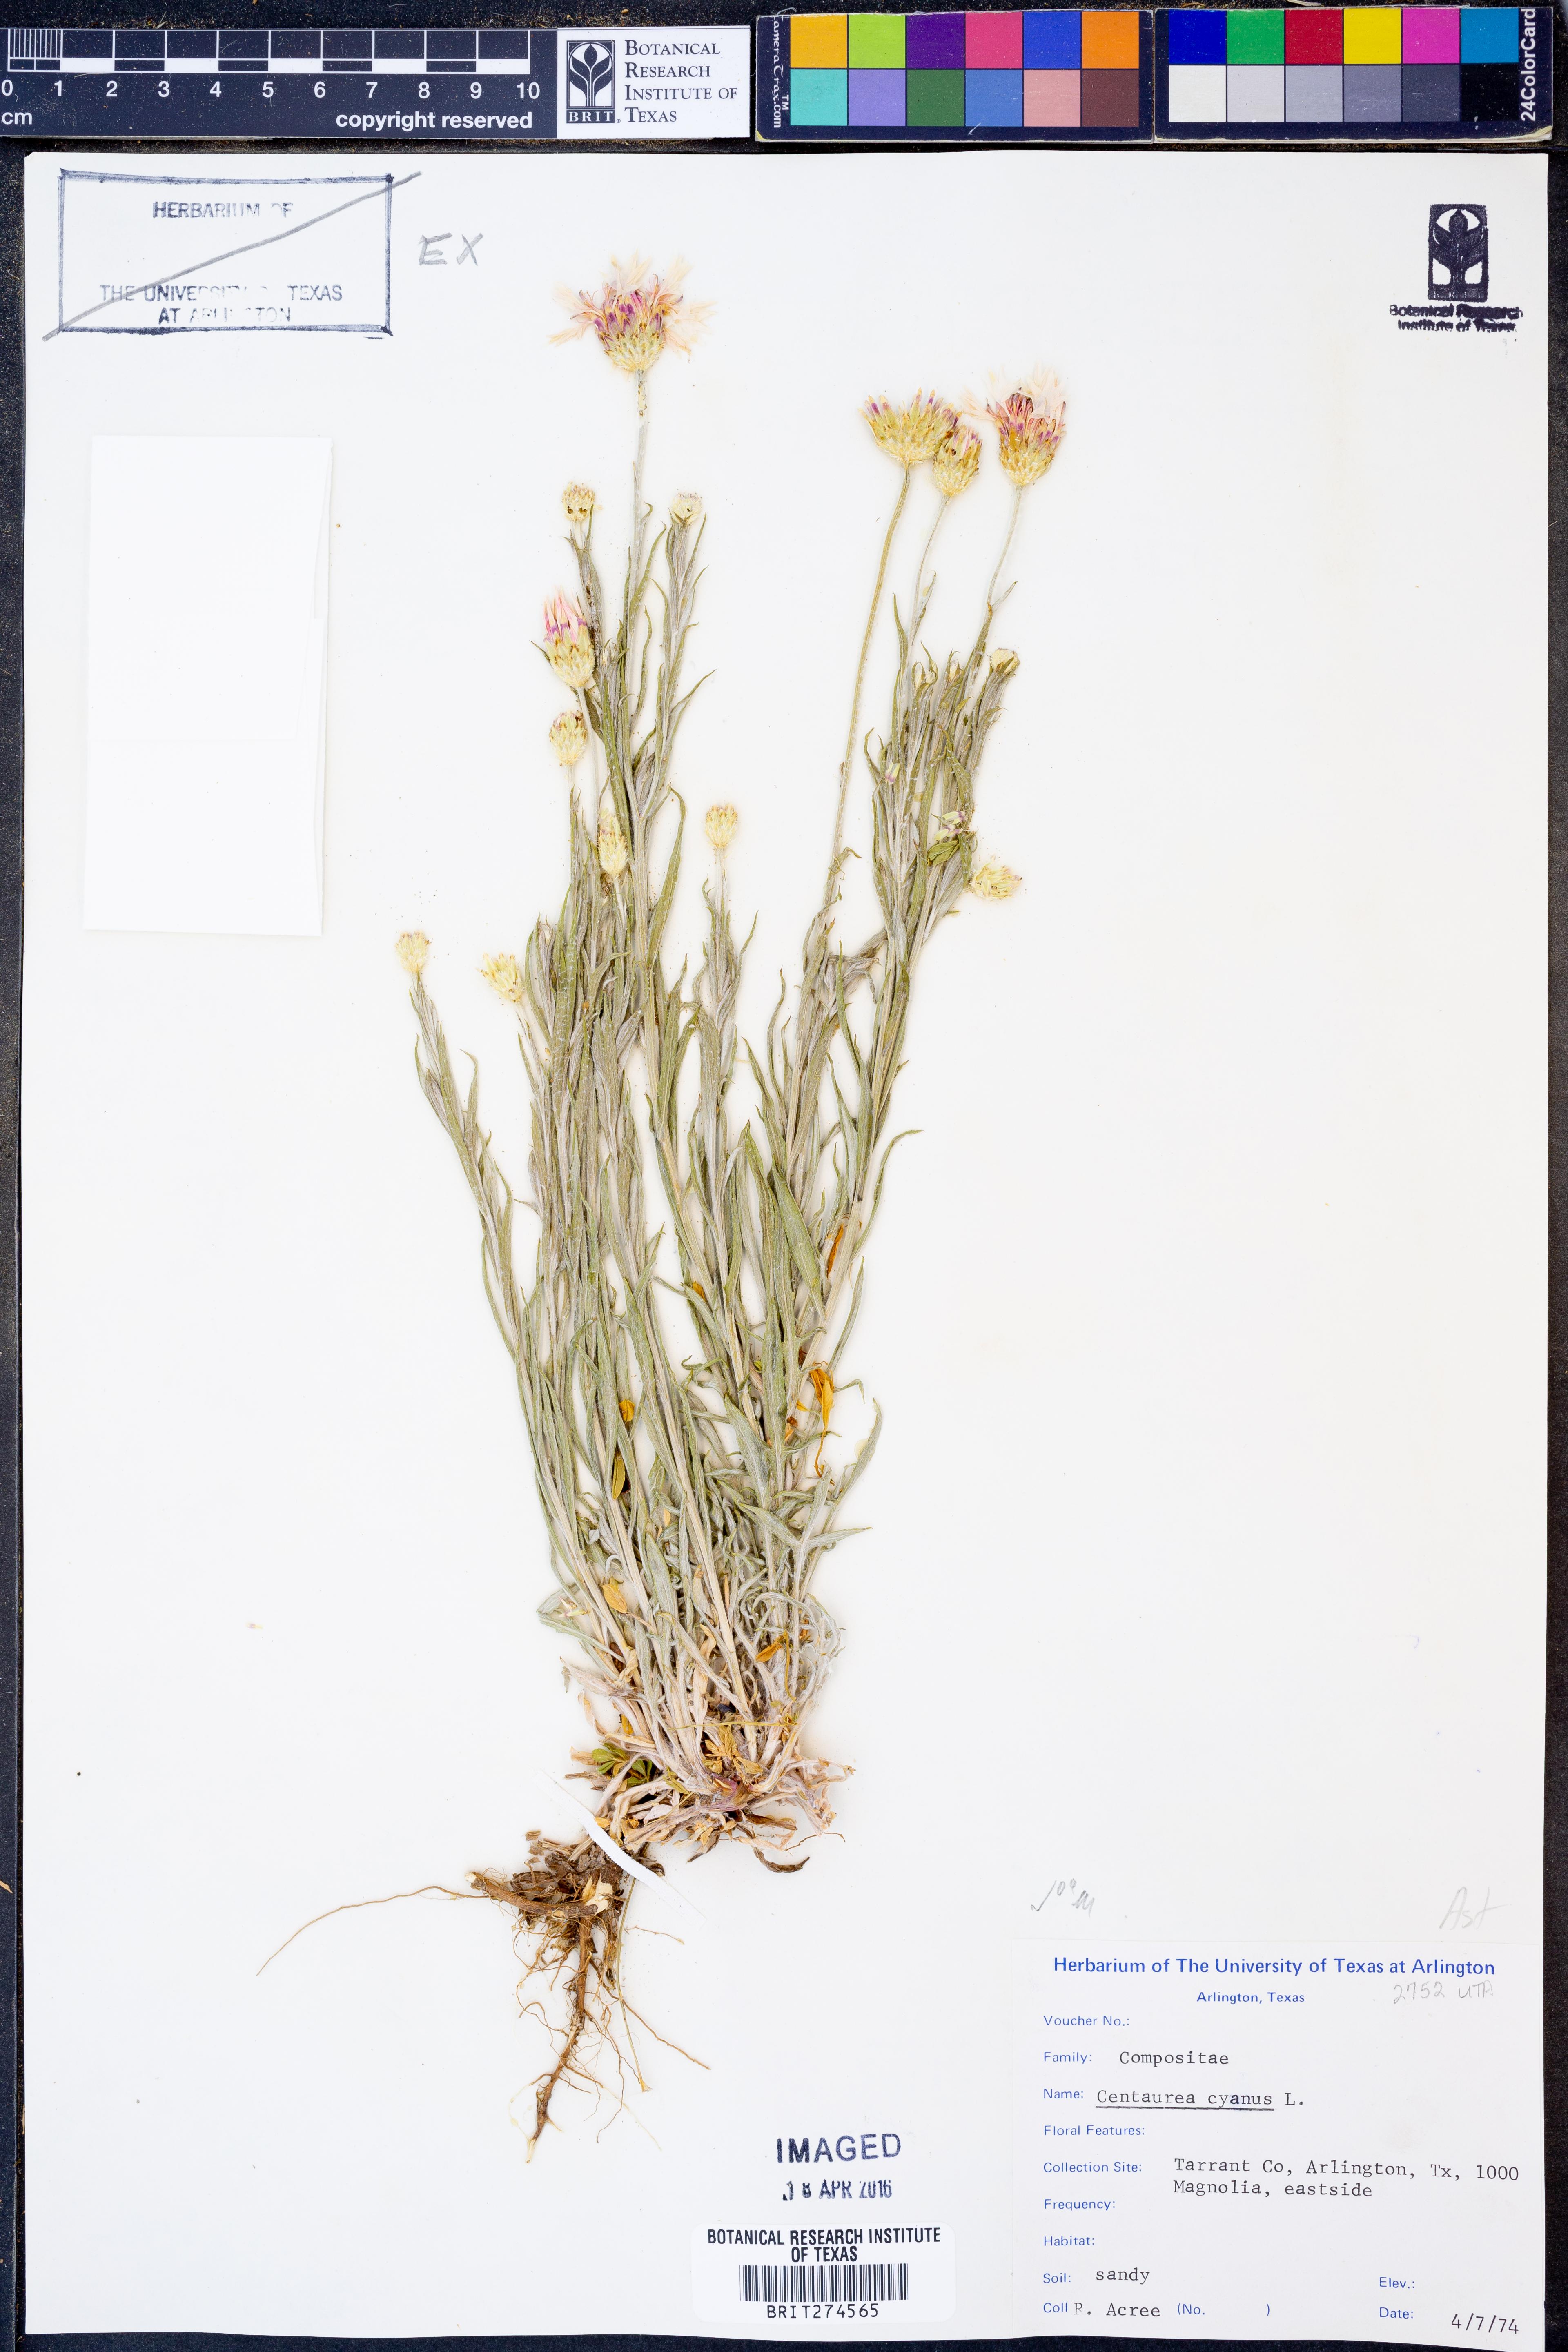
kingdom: Plantae
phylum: Tracheophyta
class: Magnoliopsida
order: Asterales
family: Asteraceae
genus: Centaurea
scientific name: Centaurea cyanus
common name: Cornflower
